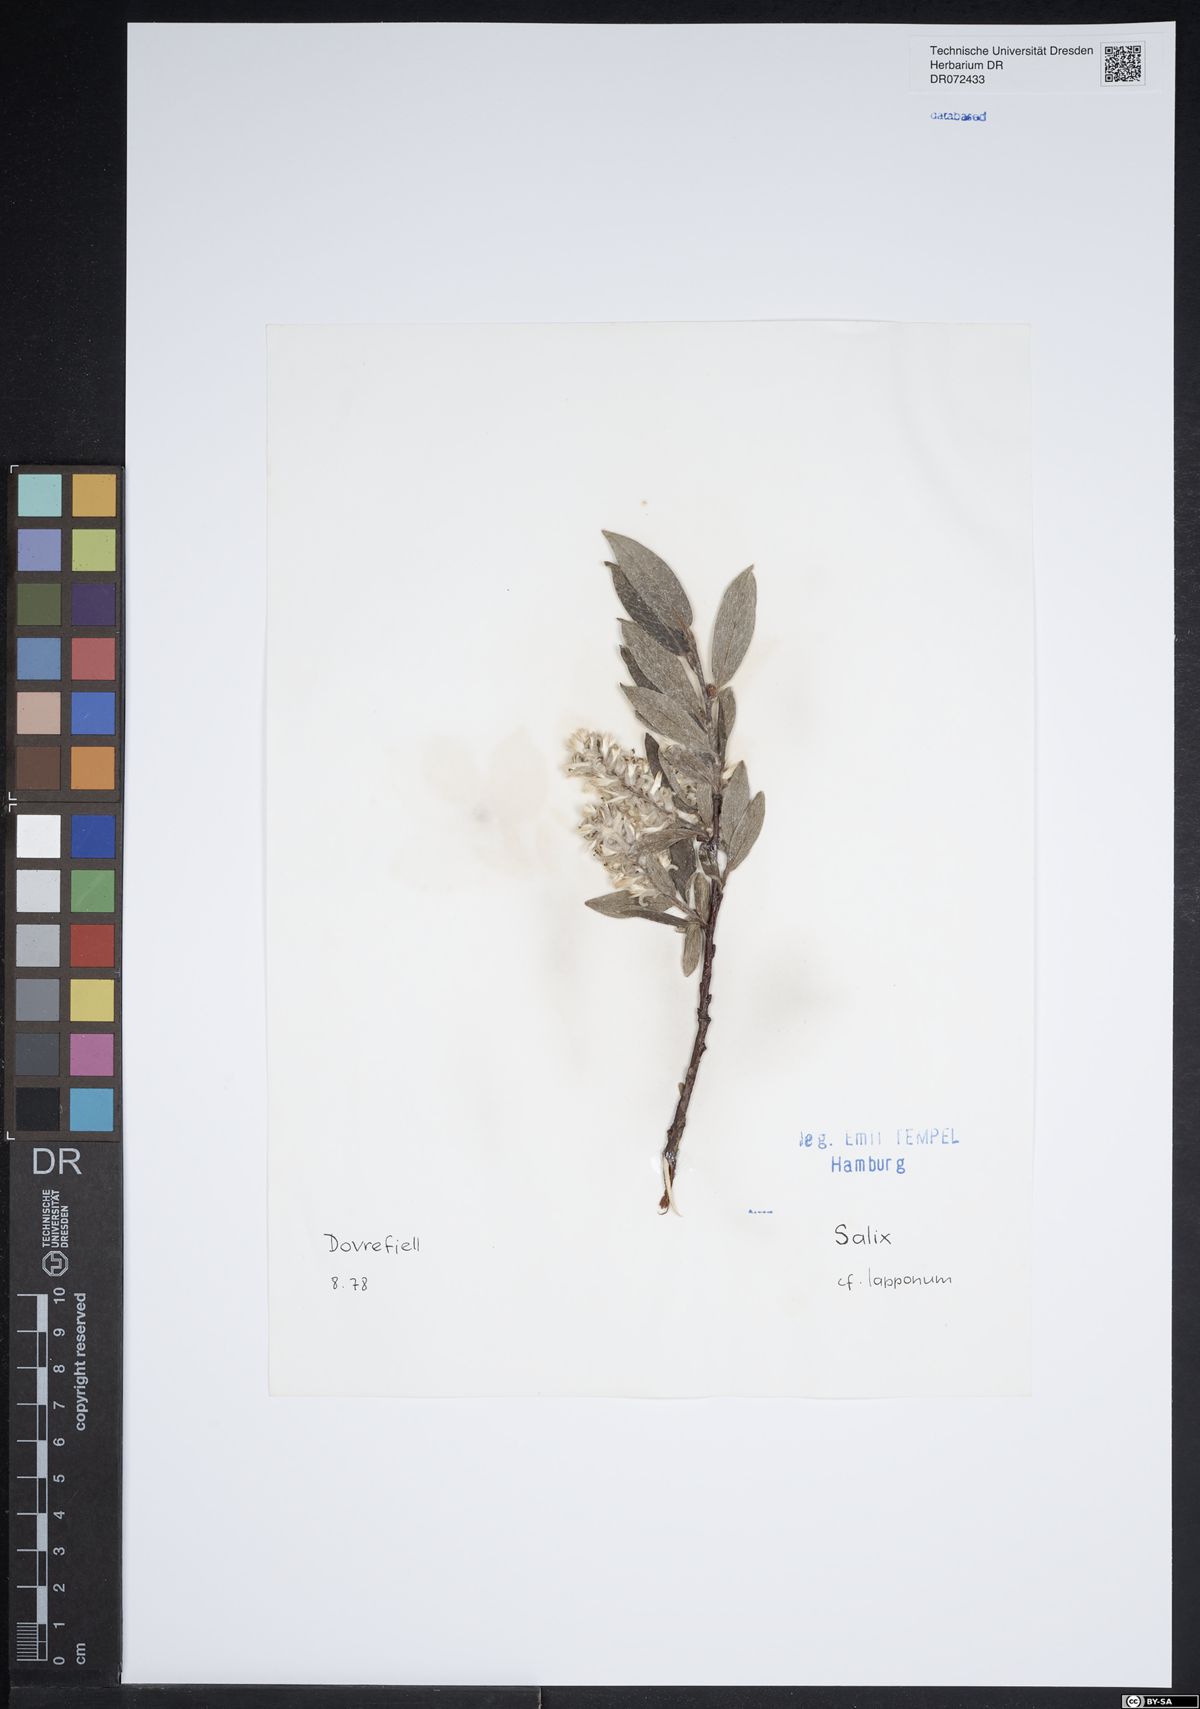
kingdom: Plantae
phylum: Tracheophyta
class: Magnoliopsida
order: Malpighiales
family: Salicaceae
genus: Salix
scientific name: Salix lapponum
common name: Downy willow
